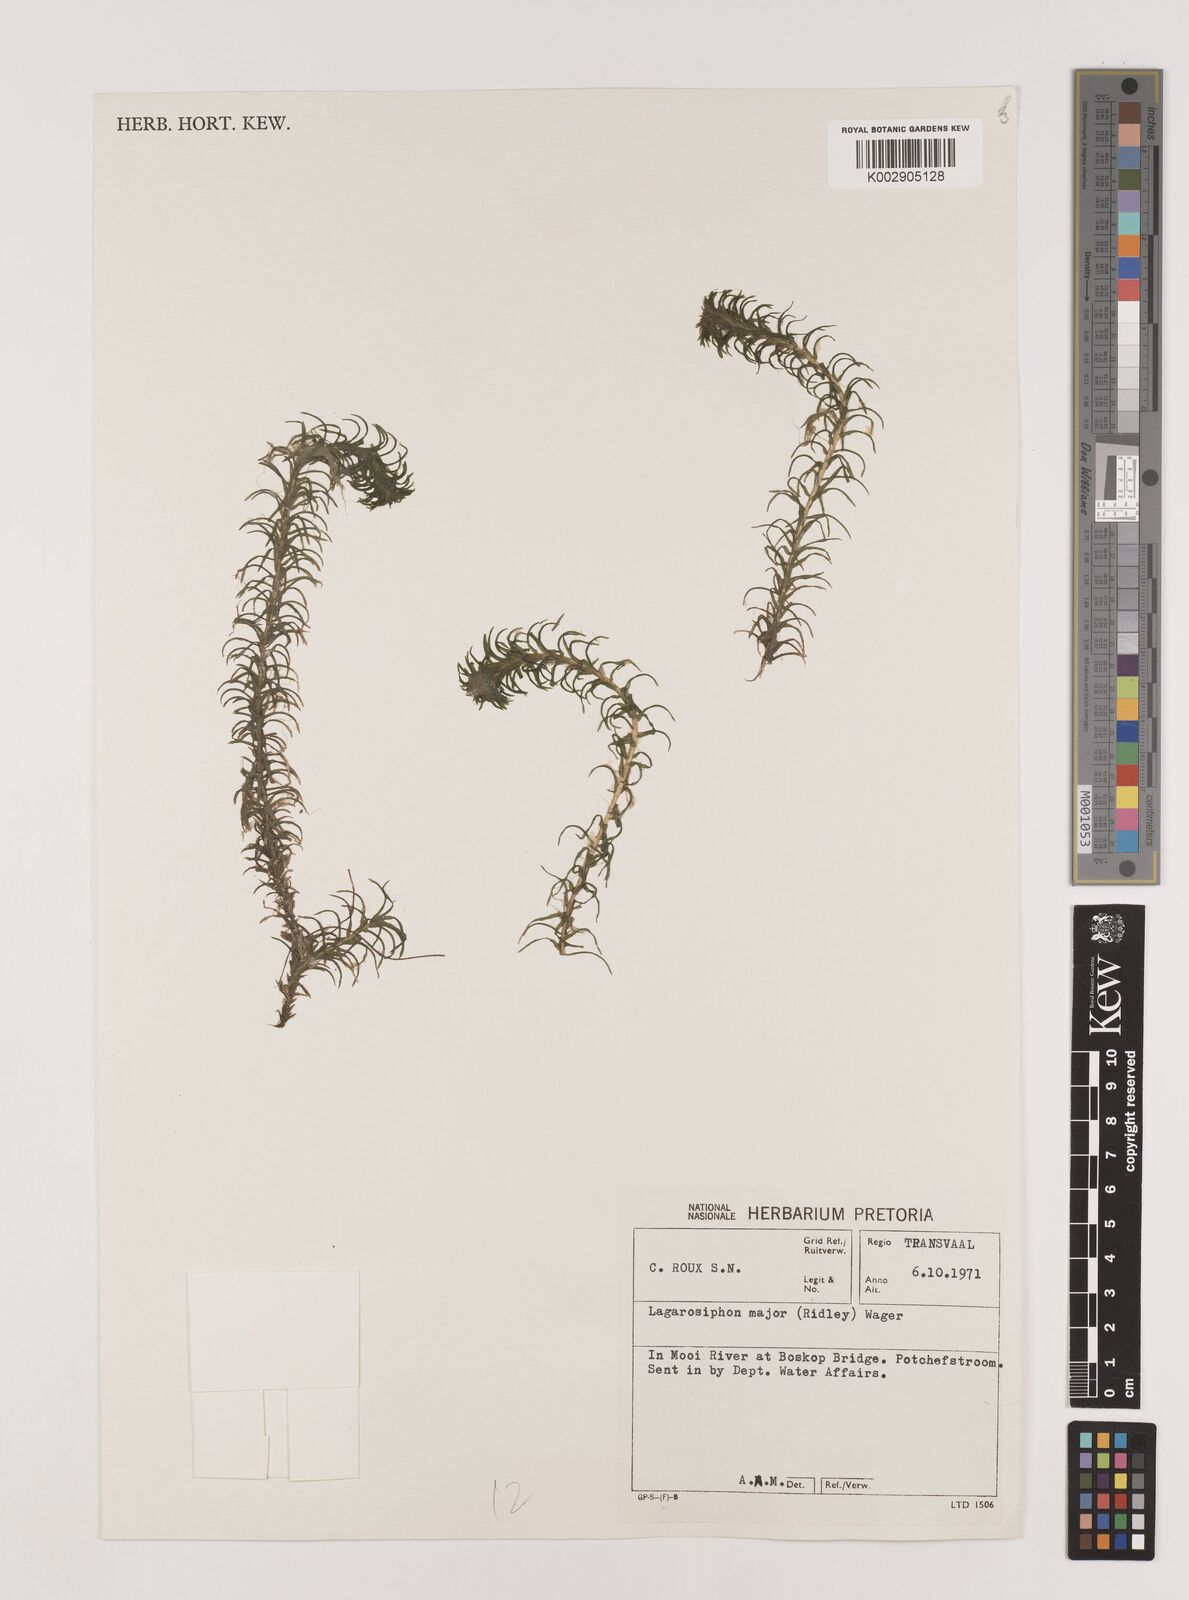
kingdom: Plantae
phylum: Tracheophyta
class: Liliopsida
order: Alismatales
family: Hydrocharitaceae
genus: Lagarosiphon
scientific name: Lagarosiphon major
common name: Curly waterweed
